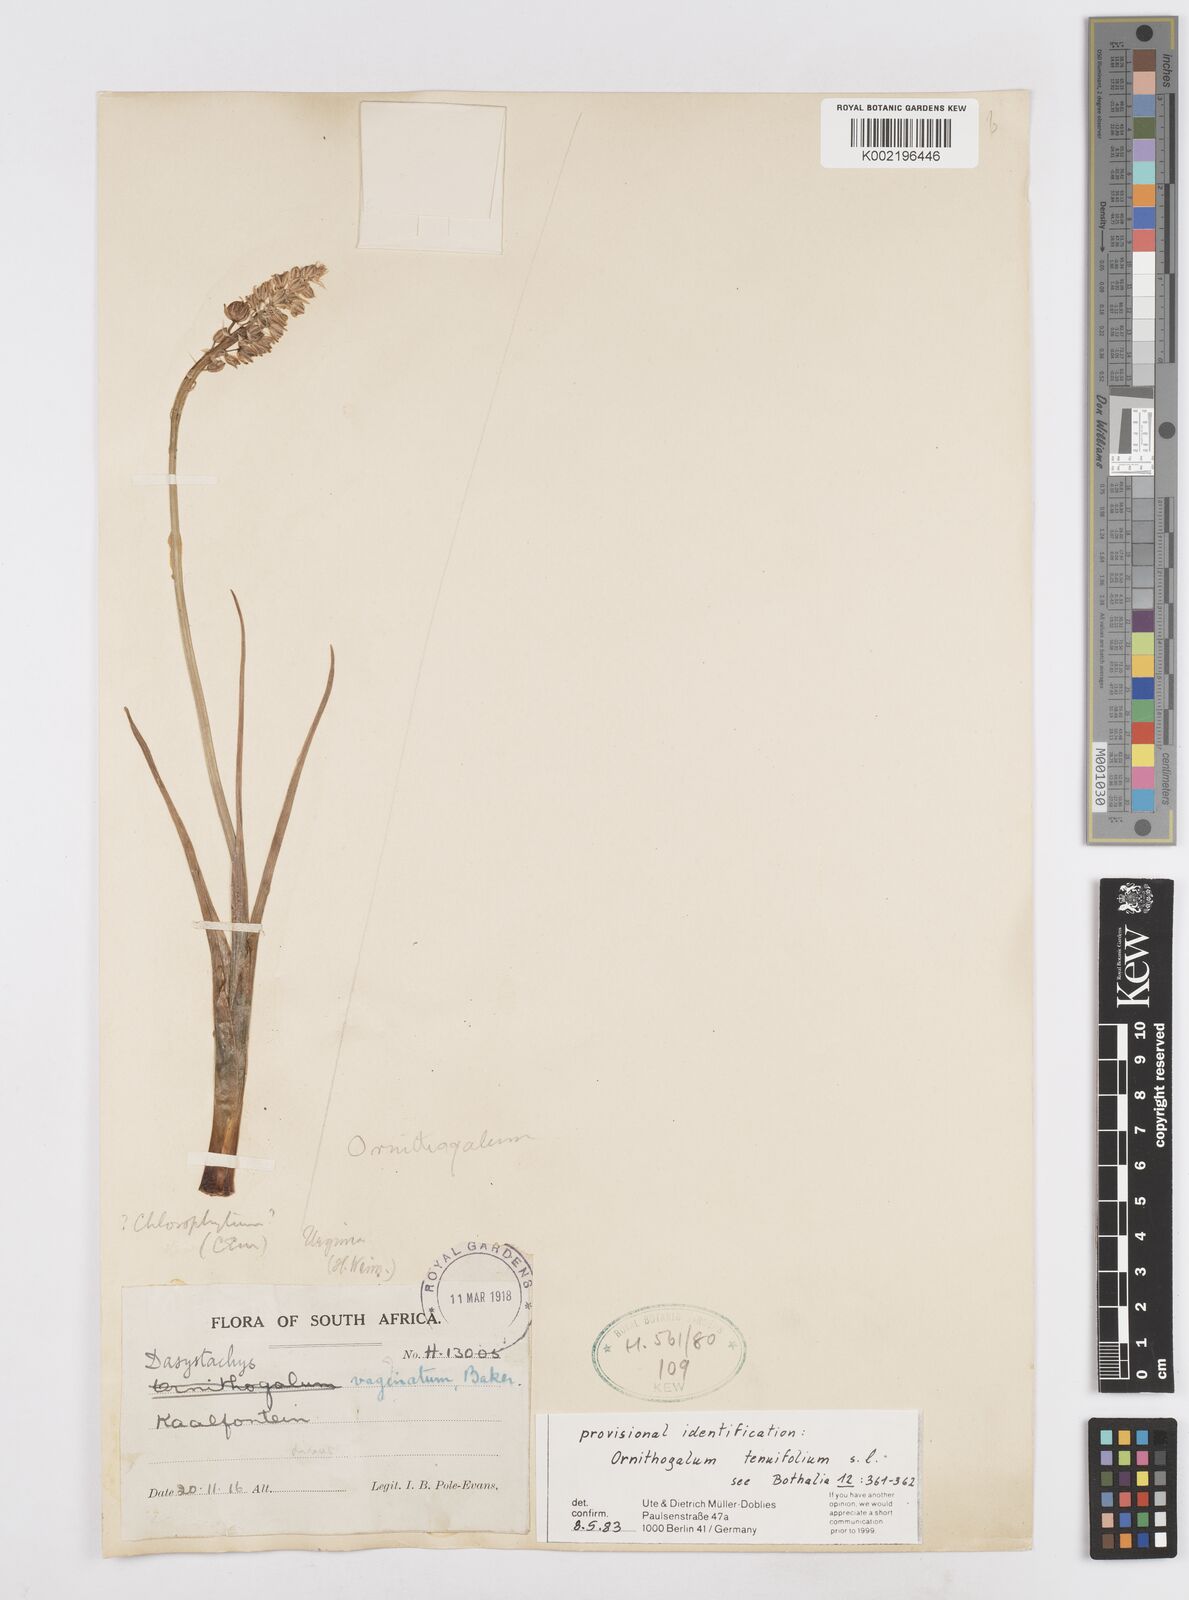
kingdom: Plantae
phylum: Tracheophyta
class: Liliopsida
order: Asparagales
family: Asparagaceae
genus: Albuca
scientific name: Albuca virens
